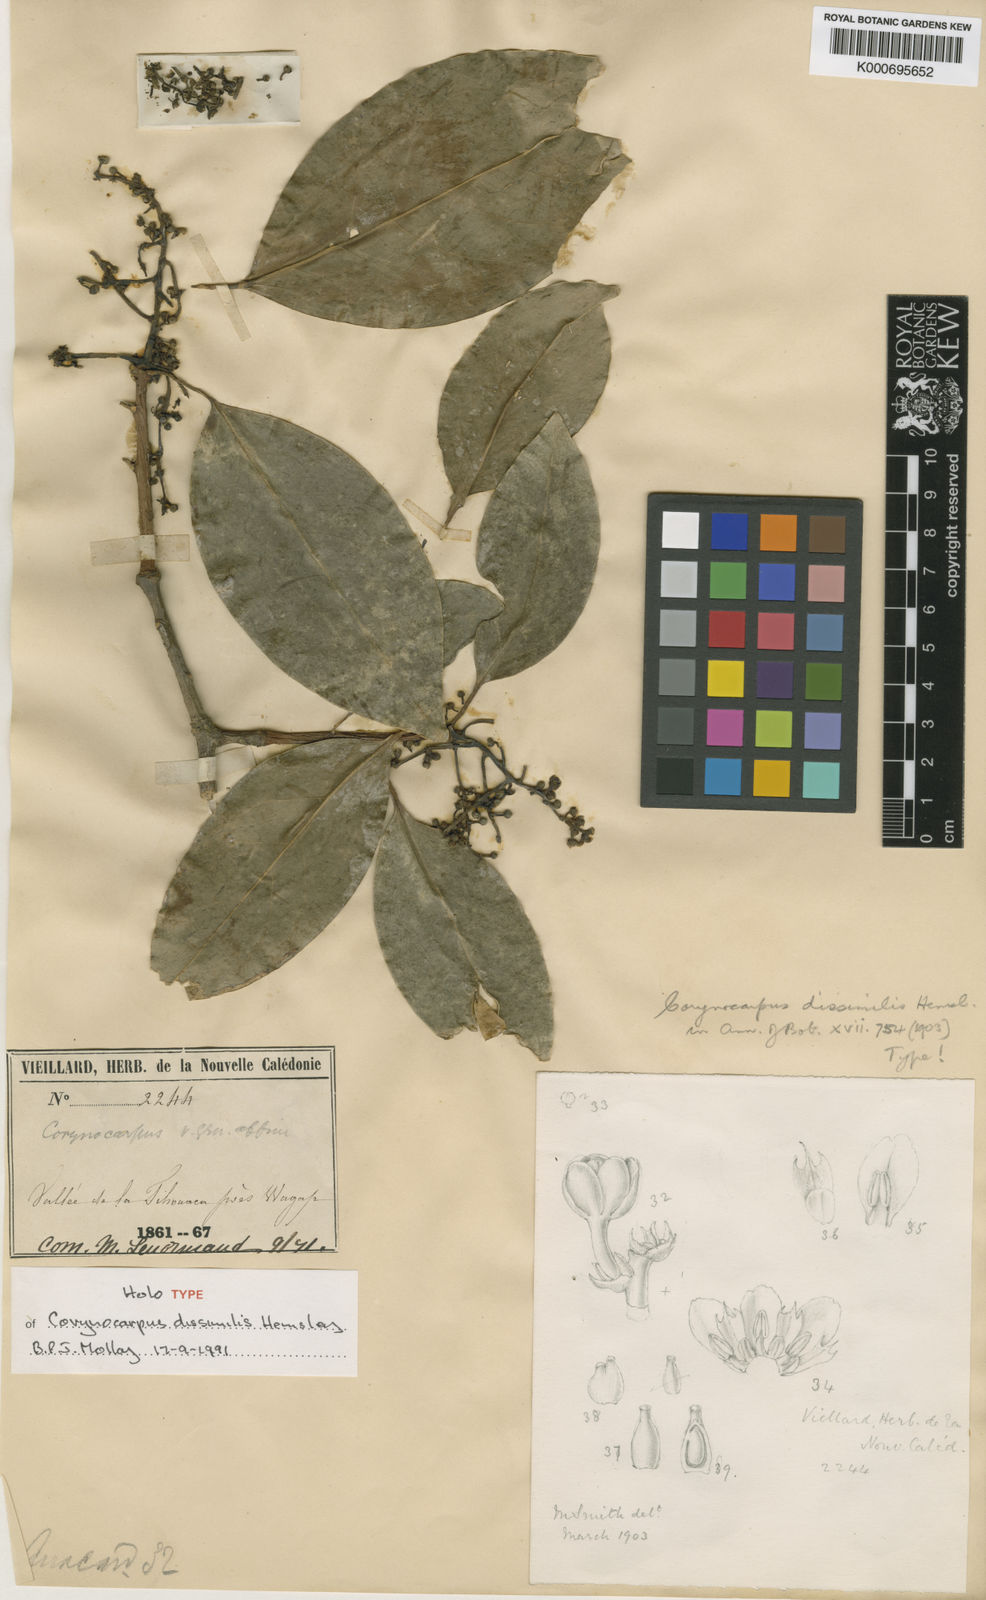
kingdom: Plantae
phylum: Tracheophyta
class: Magnoliopsida
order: Cucurbitales
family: Corynocarpaceae
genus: Corynocarpus
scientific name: Corynocarpus dissimilis
